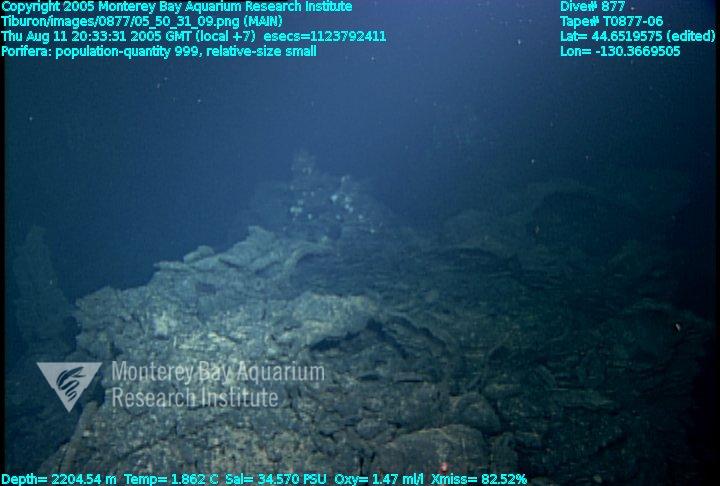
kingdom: Animalia
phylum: Porifera
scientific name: Porifera
